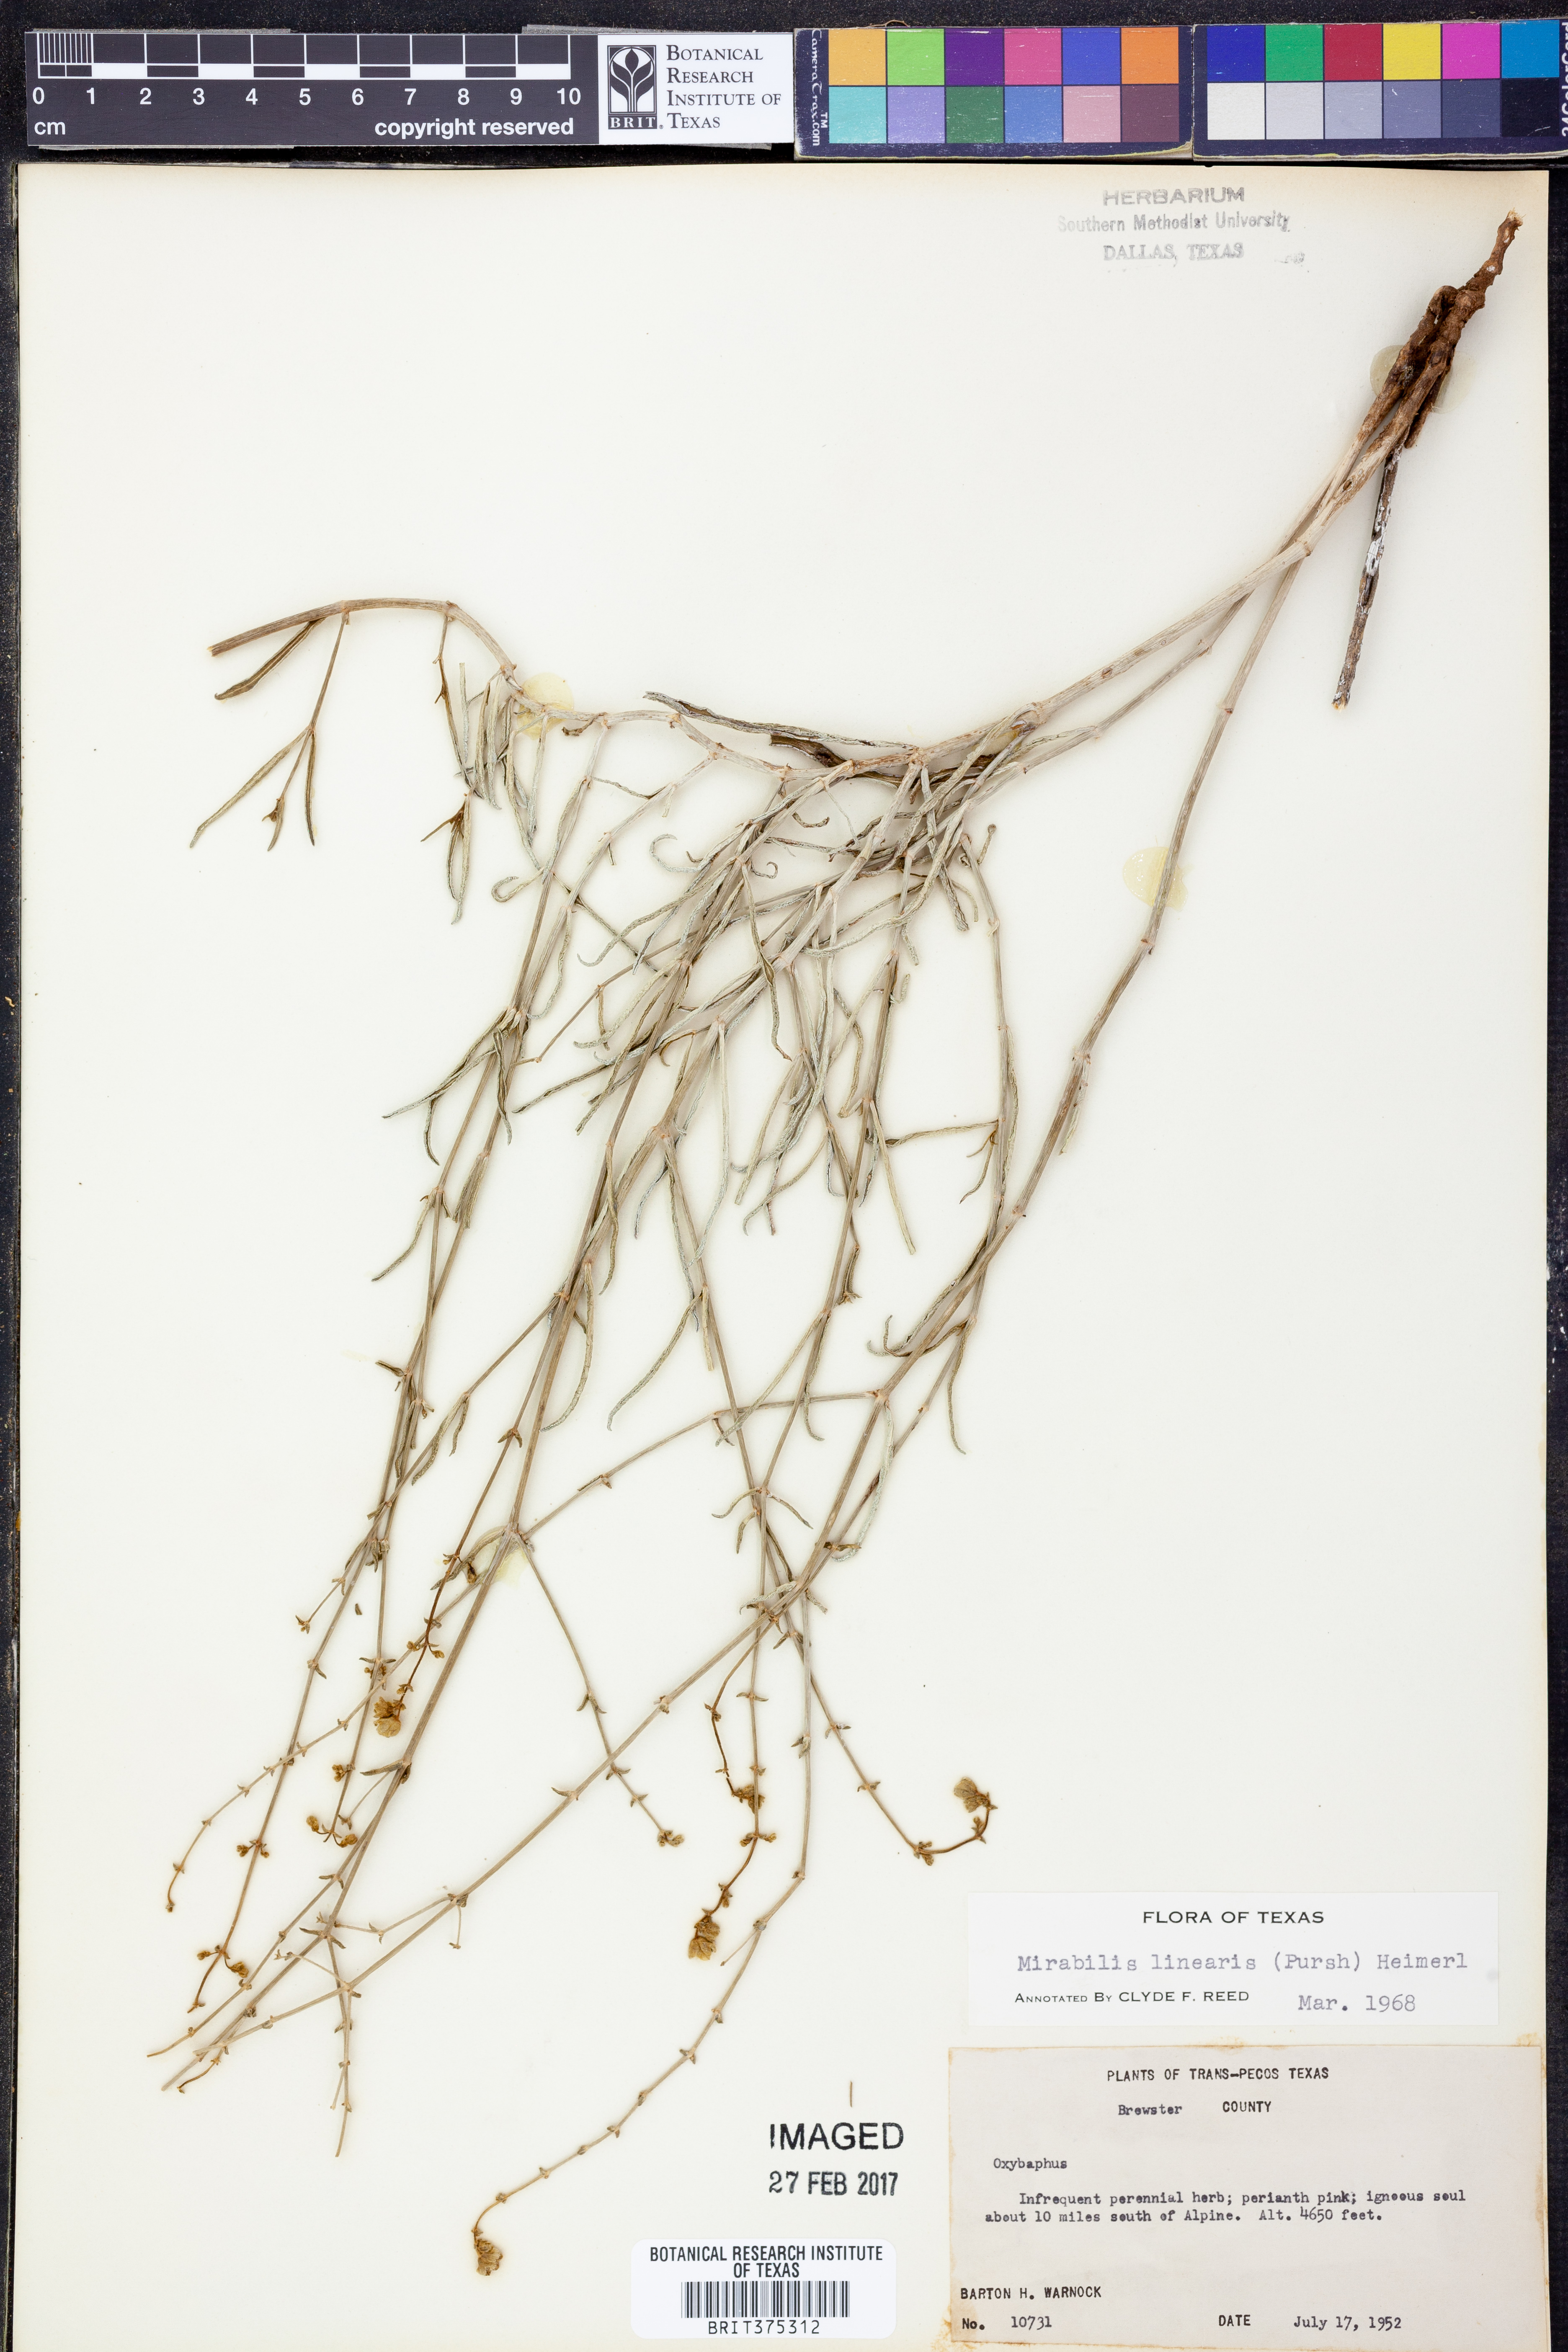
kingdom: Plantae
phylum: Tracheophyta
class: Magnoliopsida
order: Caryophyllales
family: Nyctaginaceae
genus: Mirabilis
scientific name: Mirabilis linearis
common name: Linear-leaved four-o'clock
